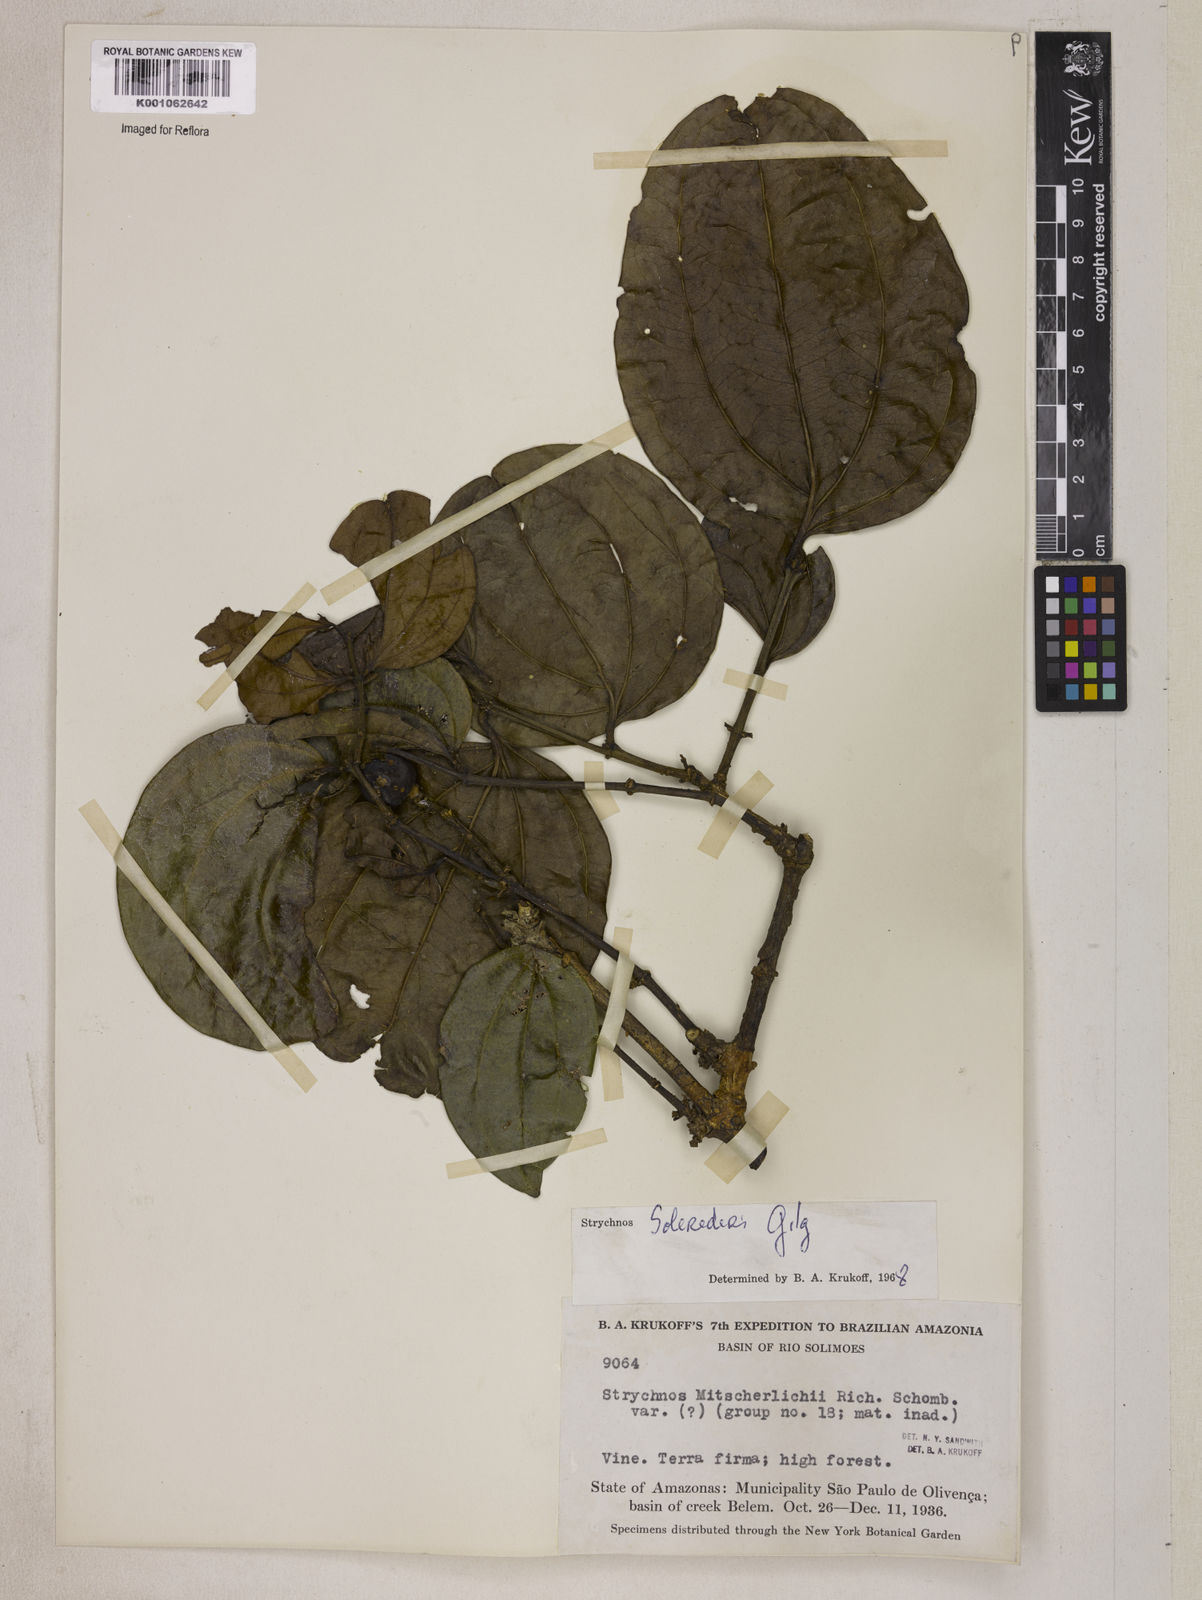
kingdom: Plantae
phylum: Tracheophyta
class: Magnoliopsida
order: Gentianales
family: Loganiaceae
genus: Strychnos
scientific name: Strychnos solerederi
